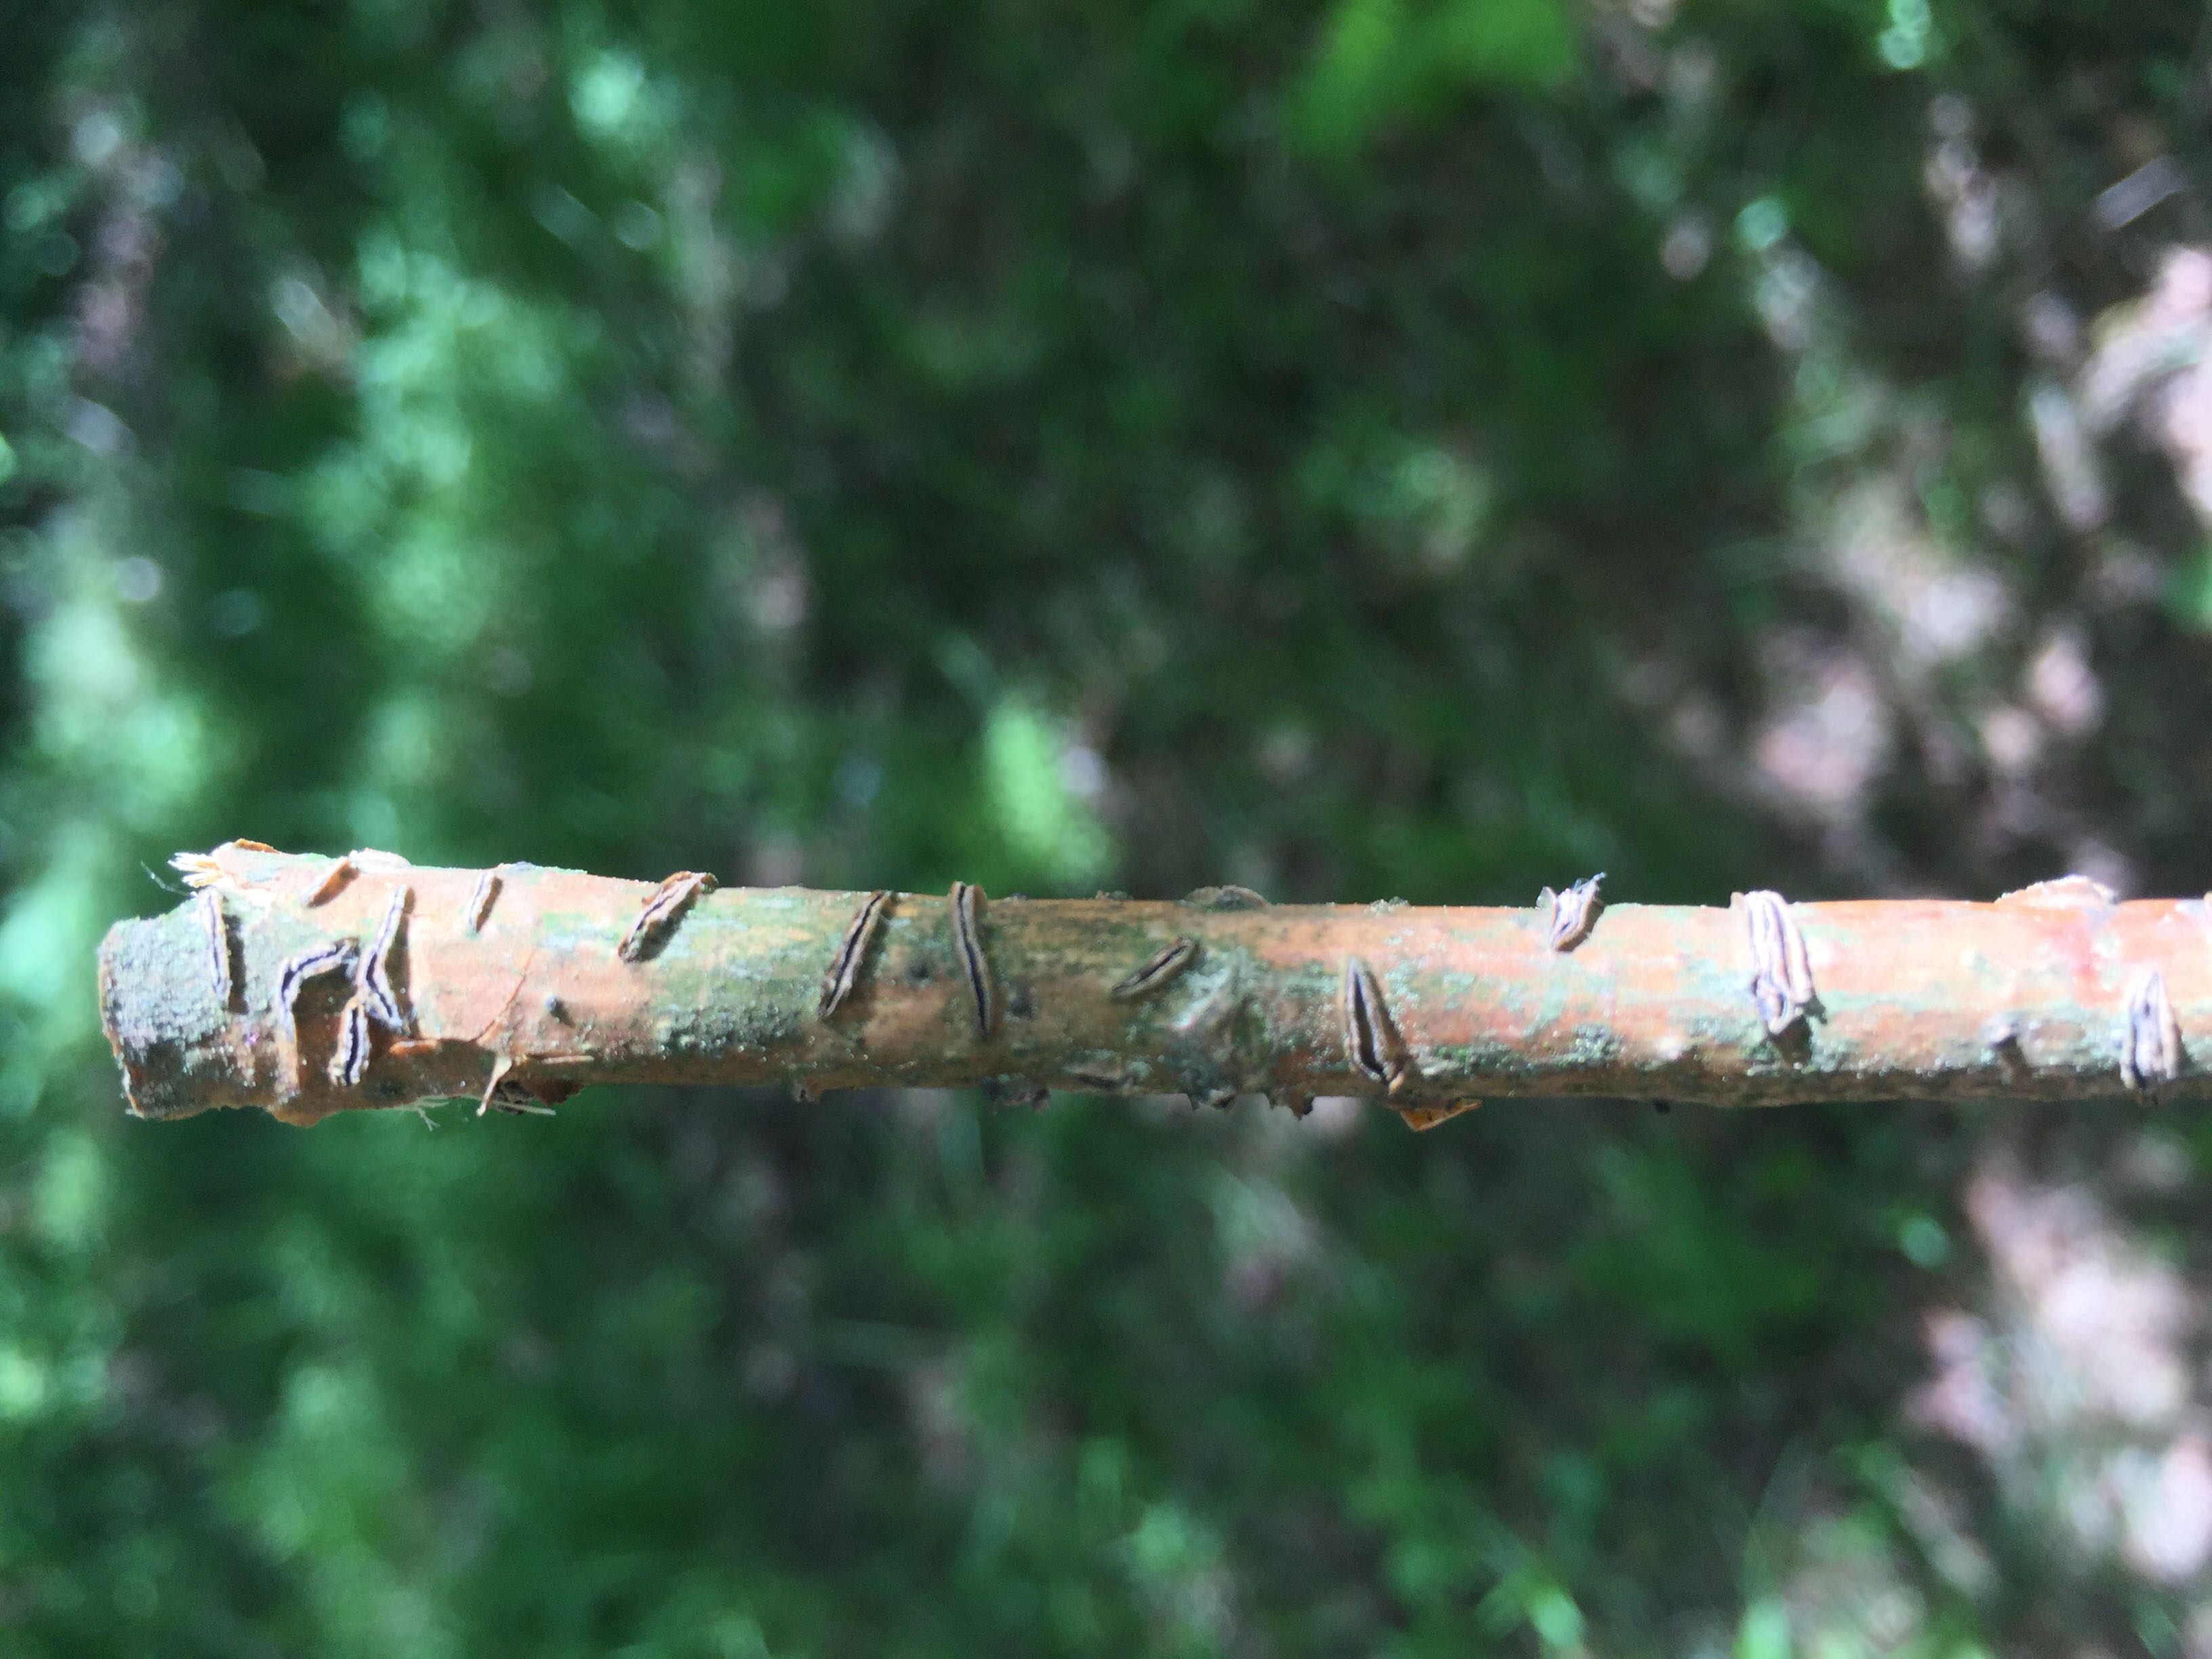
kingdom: Fungi
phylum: Ascomycota
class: Leotiomycetes
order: Rhytismatales
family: Rhytismataceae
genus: Colpoma
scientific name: Colpoma quercinum
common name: ege-sprækkeskive
